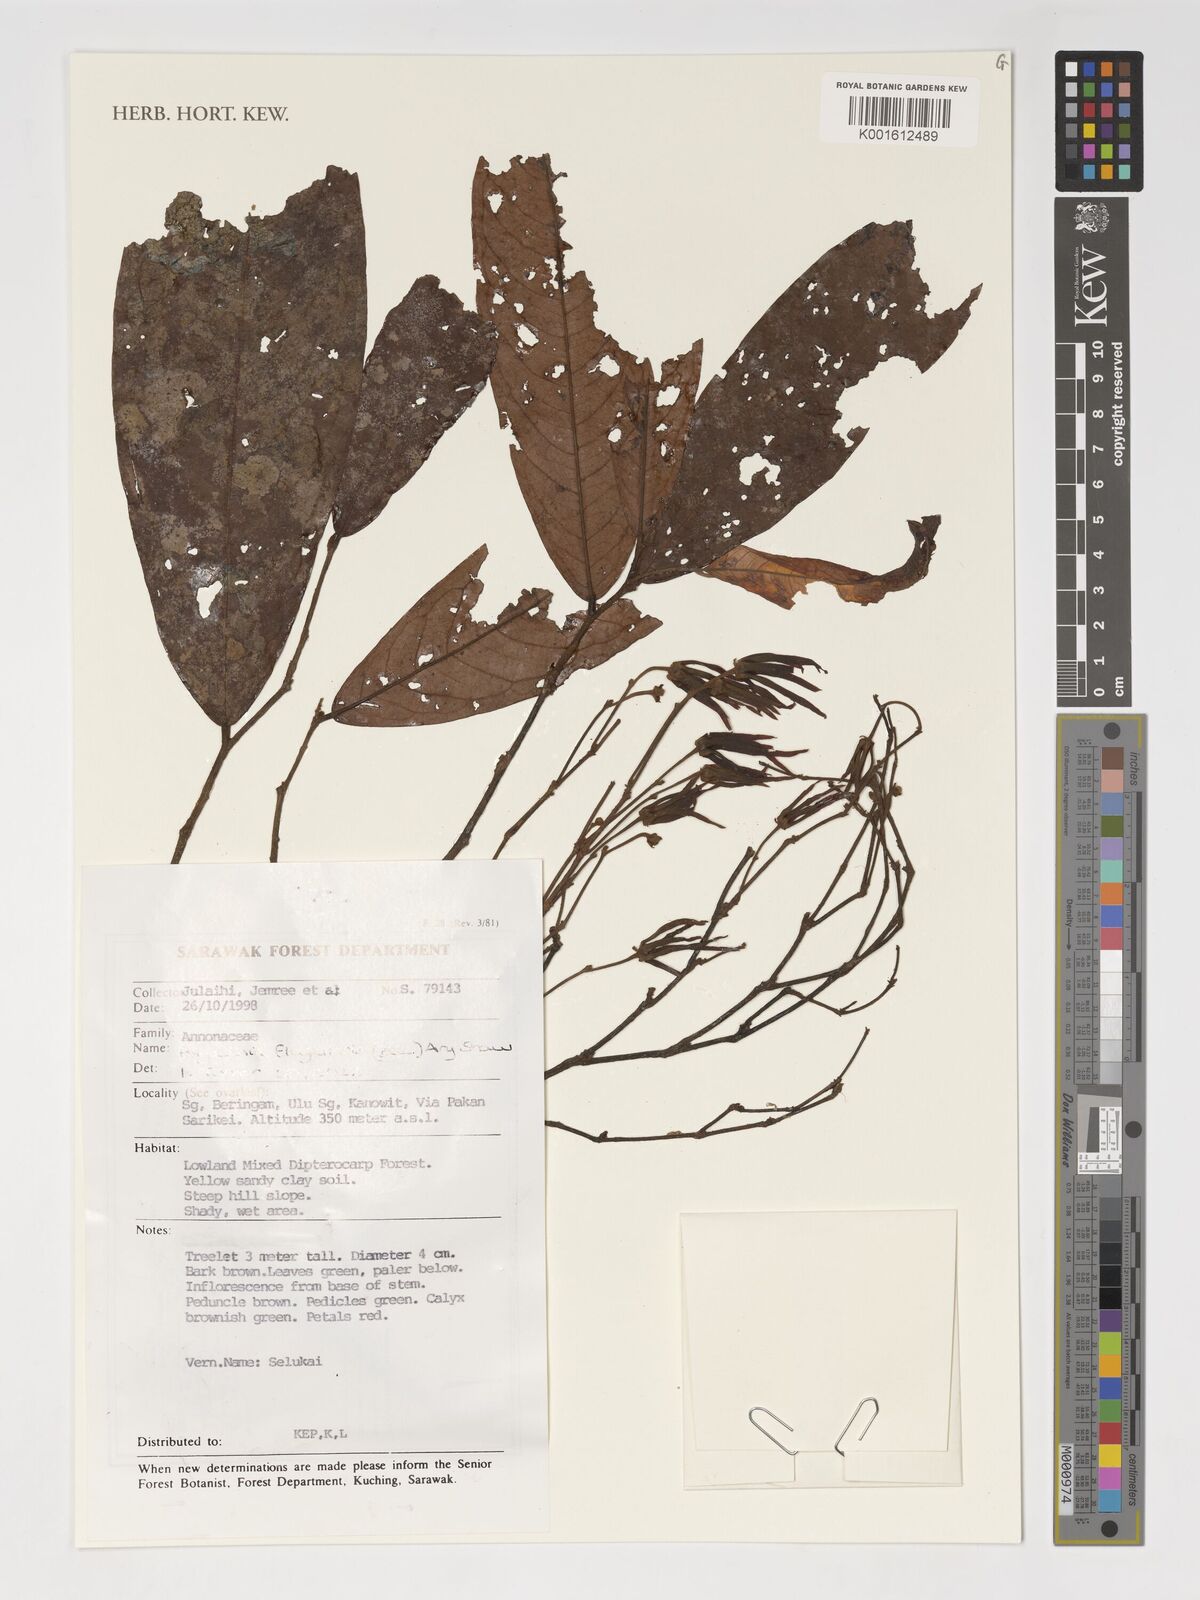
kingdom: Plantae
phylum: Tracheophyta
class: Magnoliopsida
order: Magnoliales
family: Annonaceae
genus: Polyalthia
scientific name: Polyalthia flagellaris
